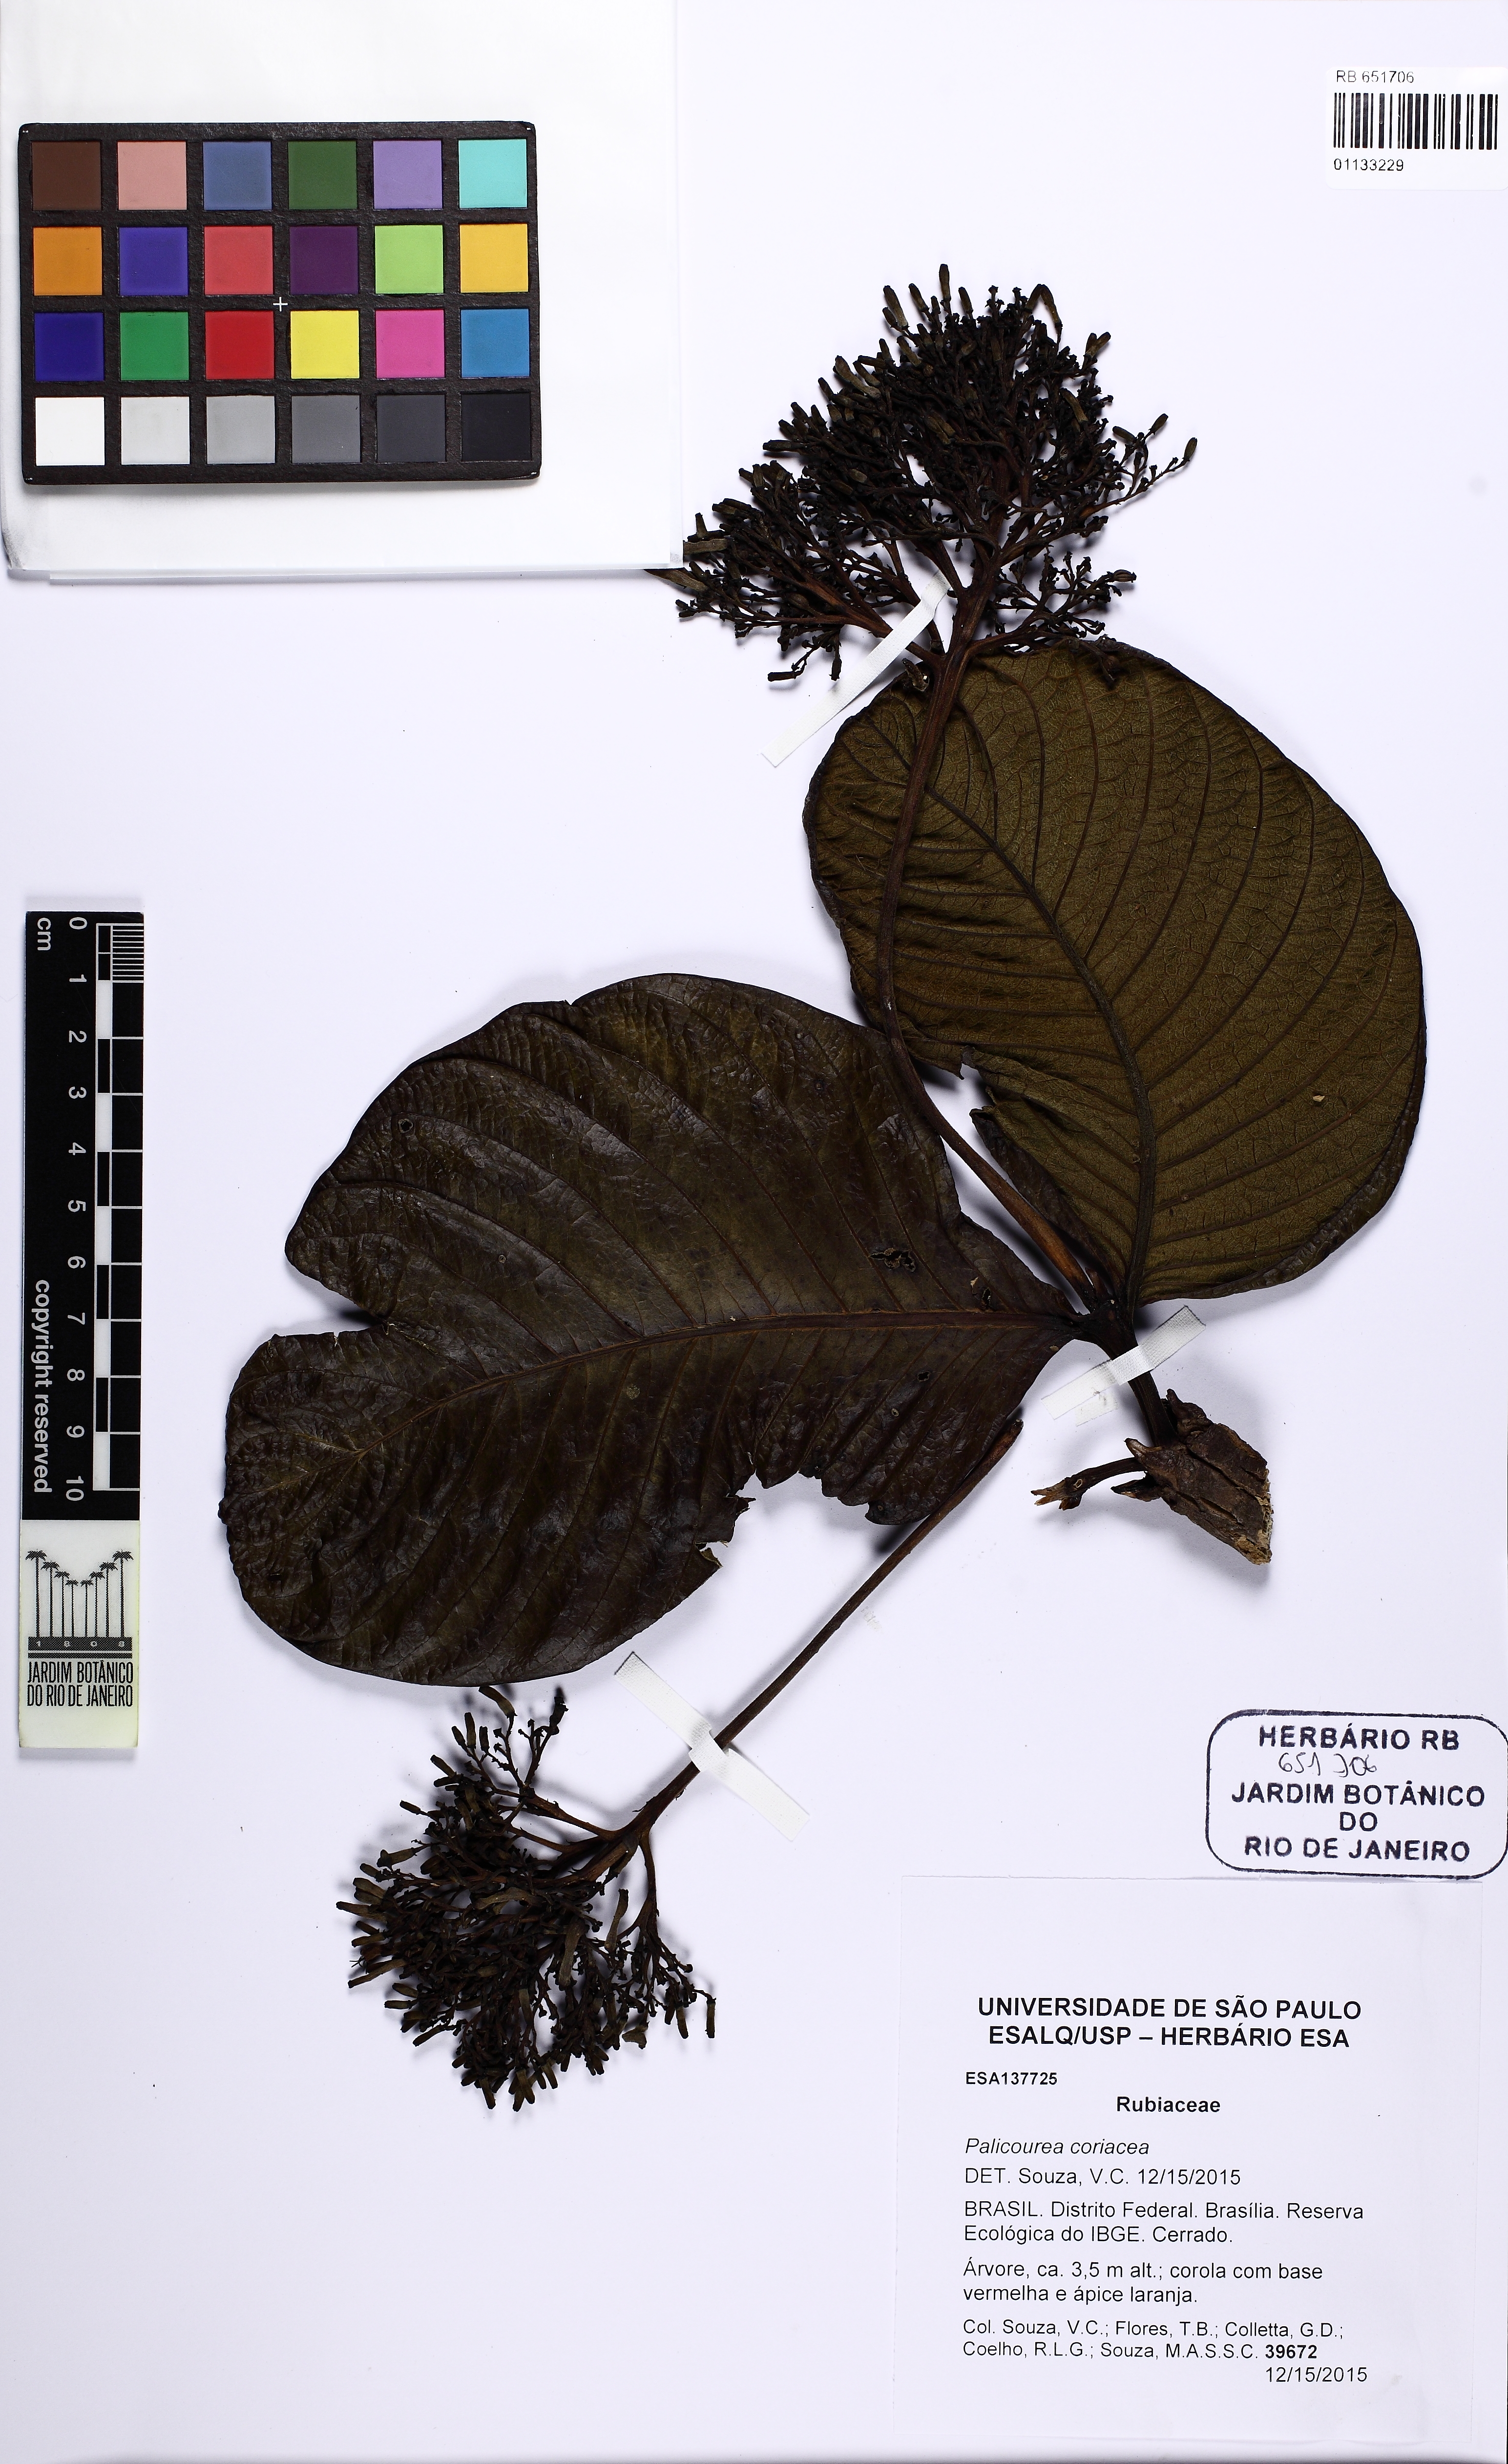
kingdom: Plantae
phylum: Tracheophyta
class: Magnoliopsida
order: Gentianales
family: Rubiaceae
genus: Palicourea
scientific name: Palicourea coriacea
